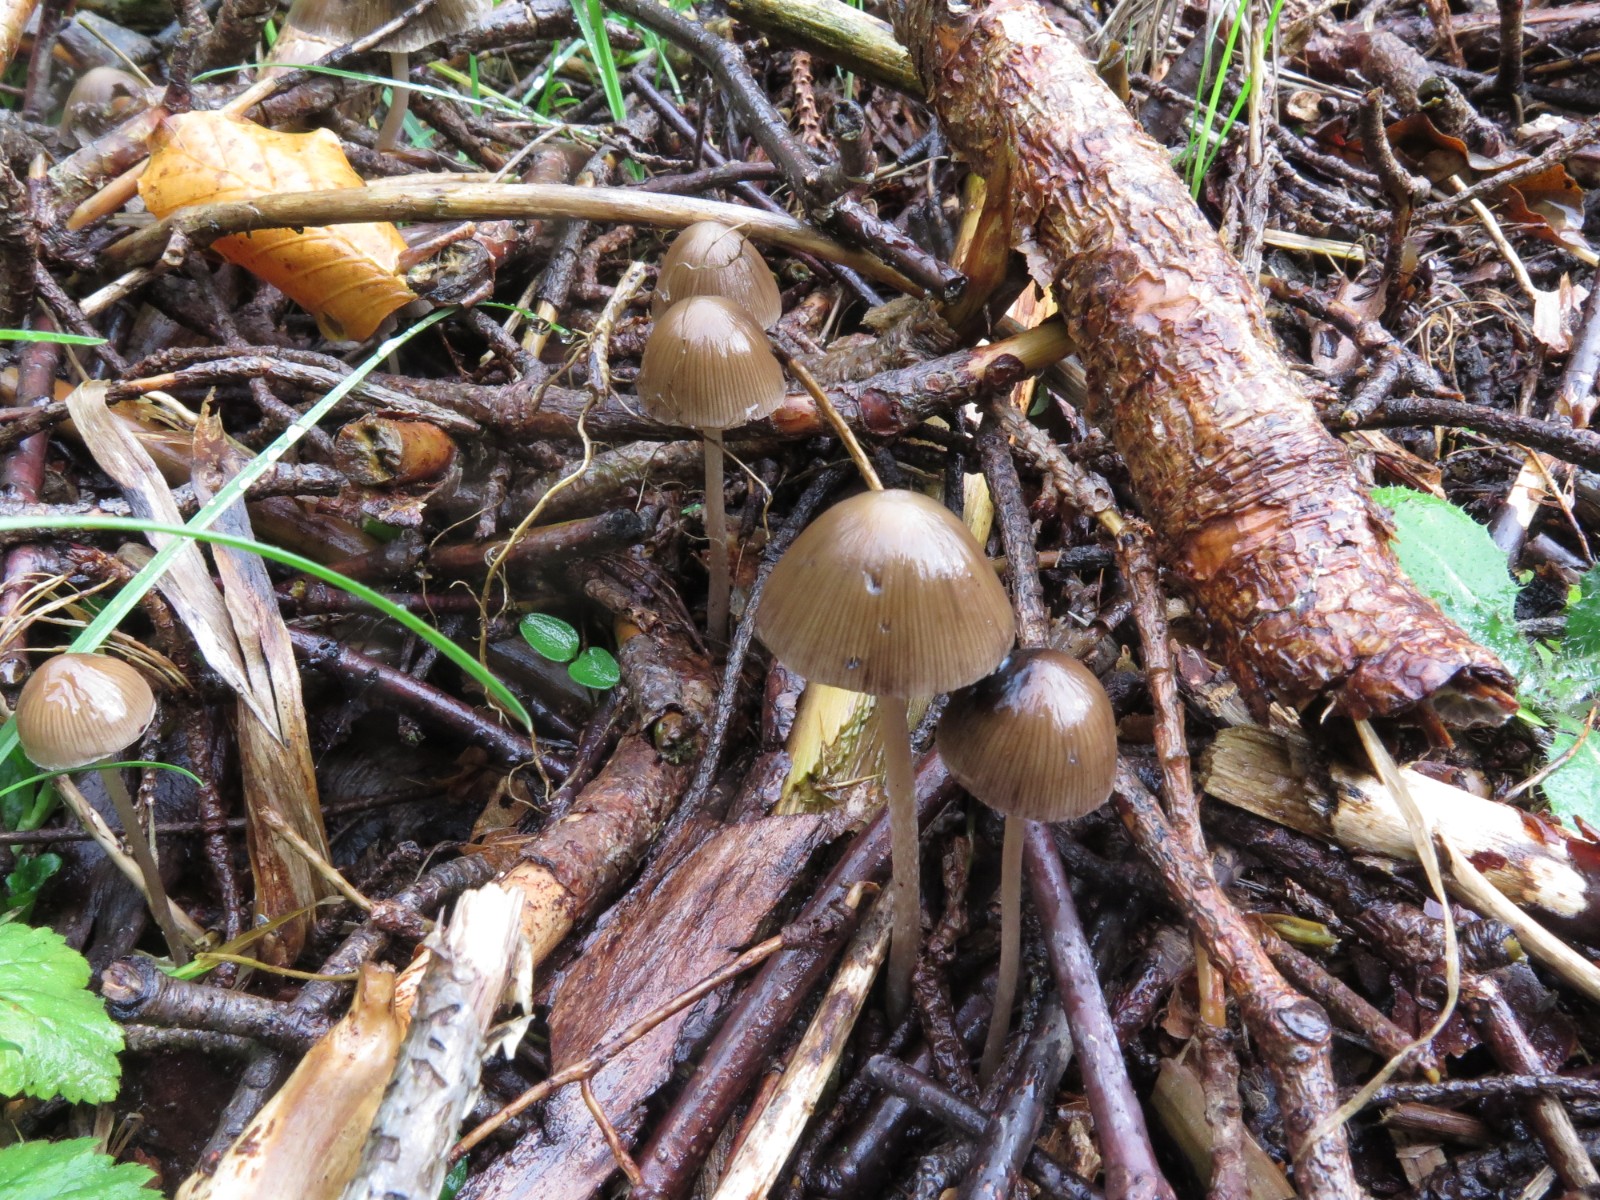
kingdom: Fungi
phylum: Basidiomycota
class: Agaricomycetes
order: Agaricales
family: Psathyrellaceae
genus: Parasola
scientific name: Parasola conopilea
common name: kegle-hjulhat
